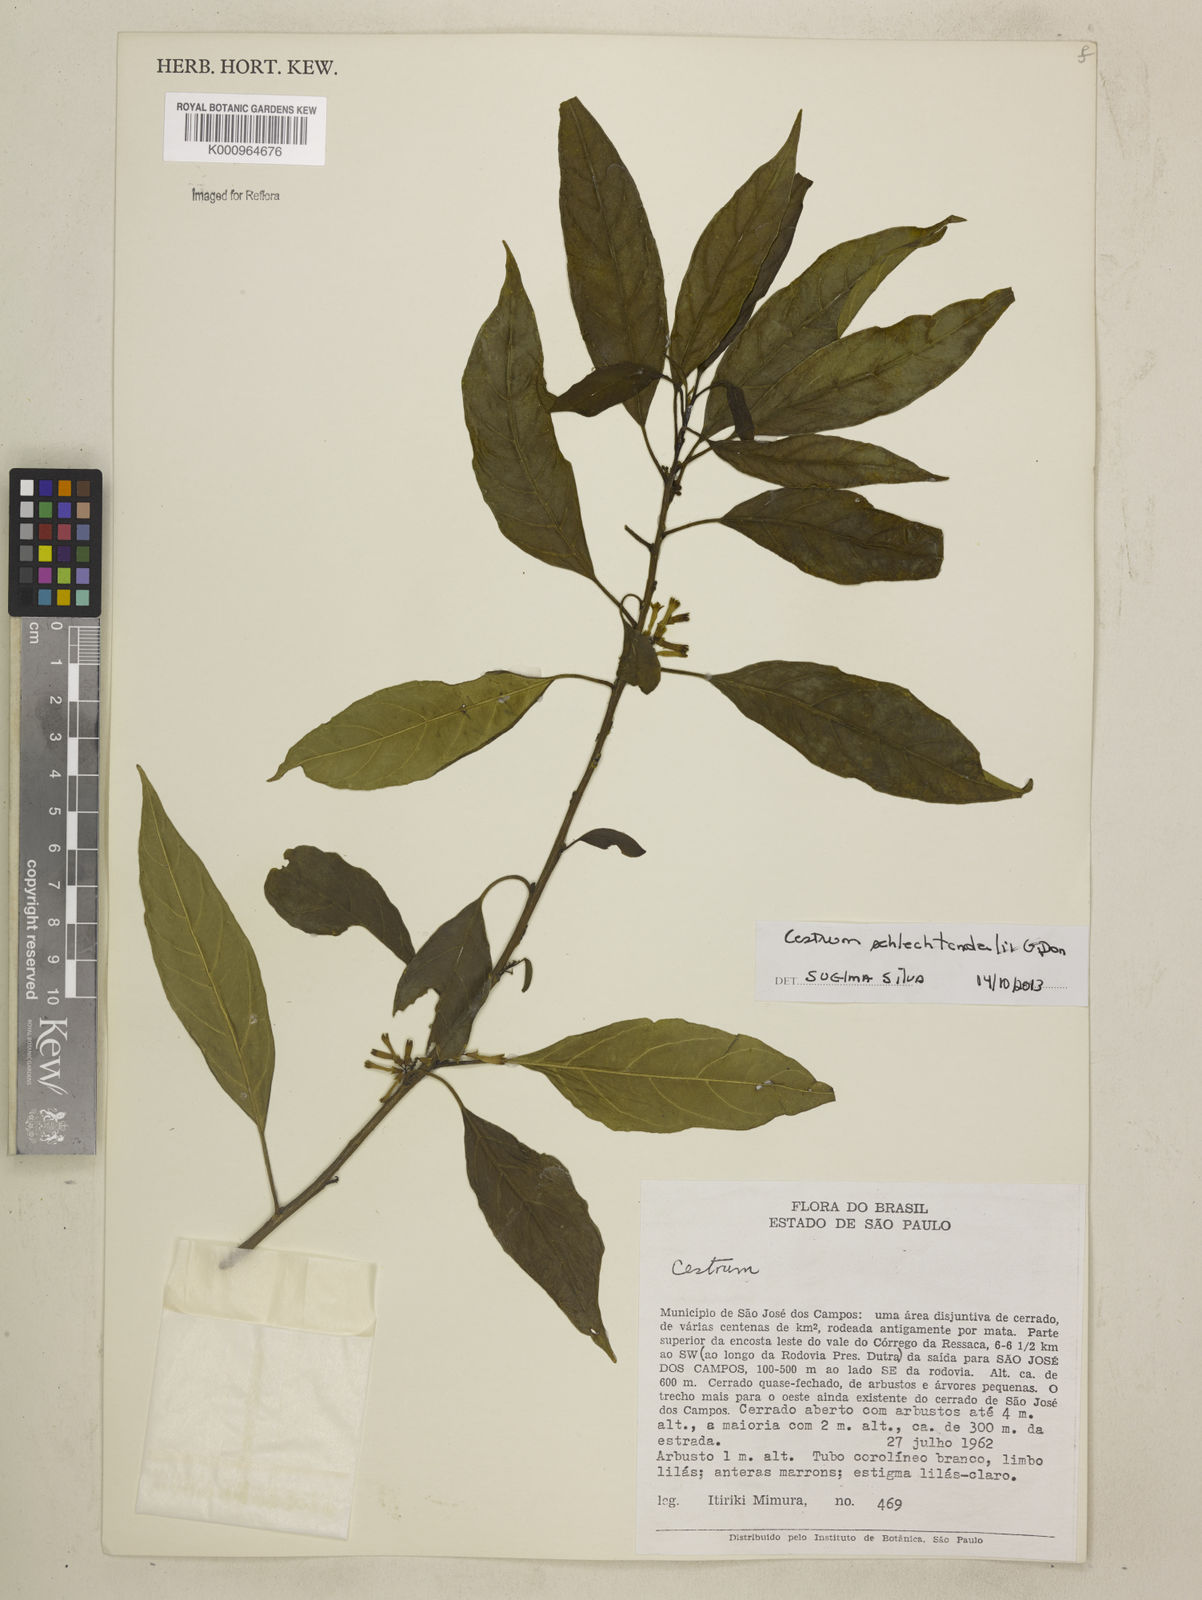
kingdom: Plantae
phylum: Tracheophyta
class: Magnoliopsida
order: Solanales
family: Solanaceae
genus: Cestrum
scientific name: Cestrum schlechtendalii
